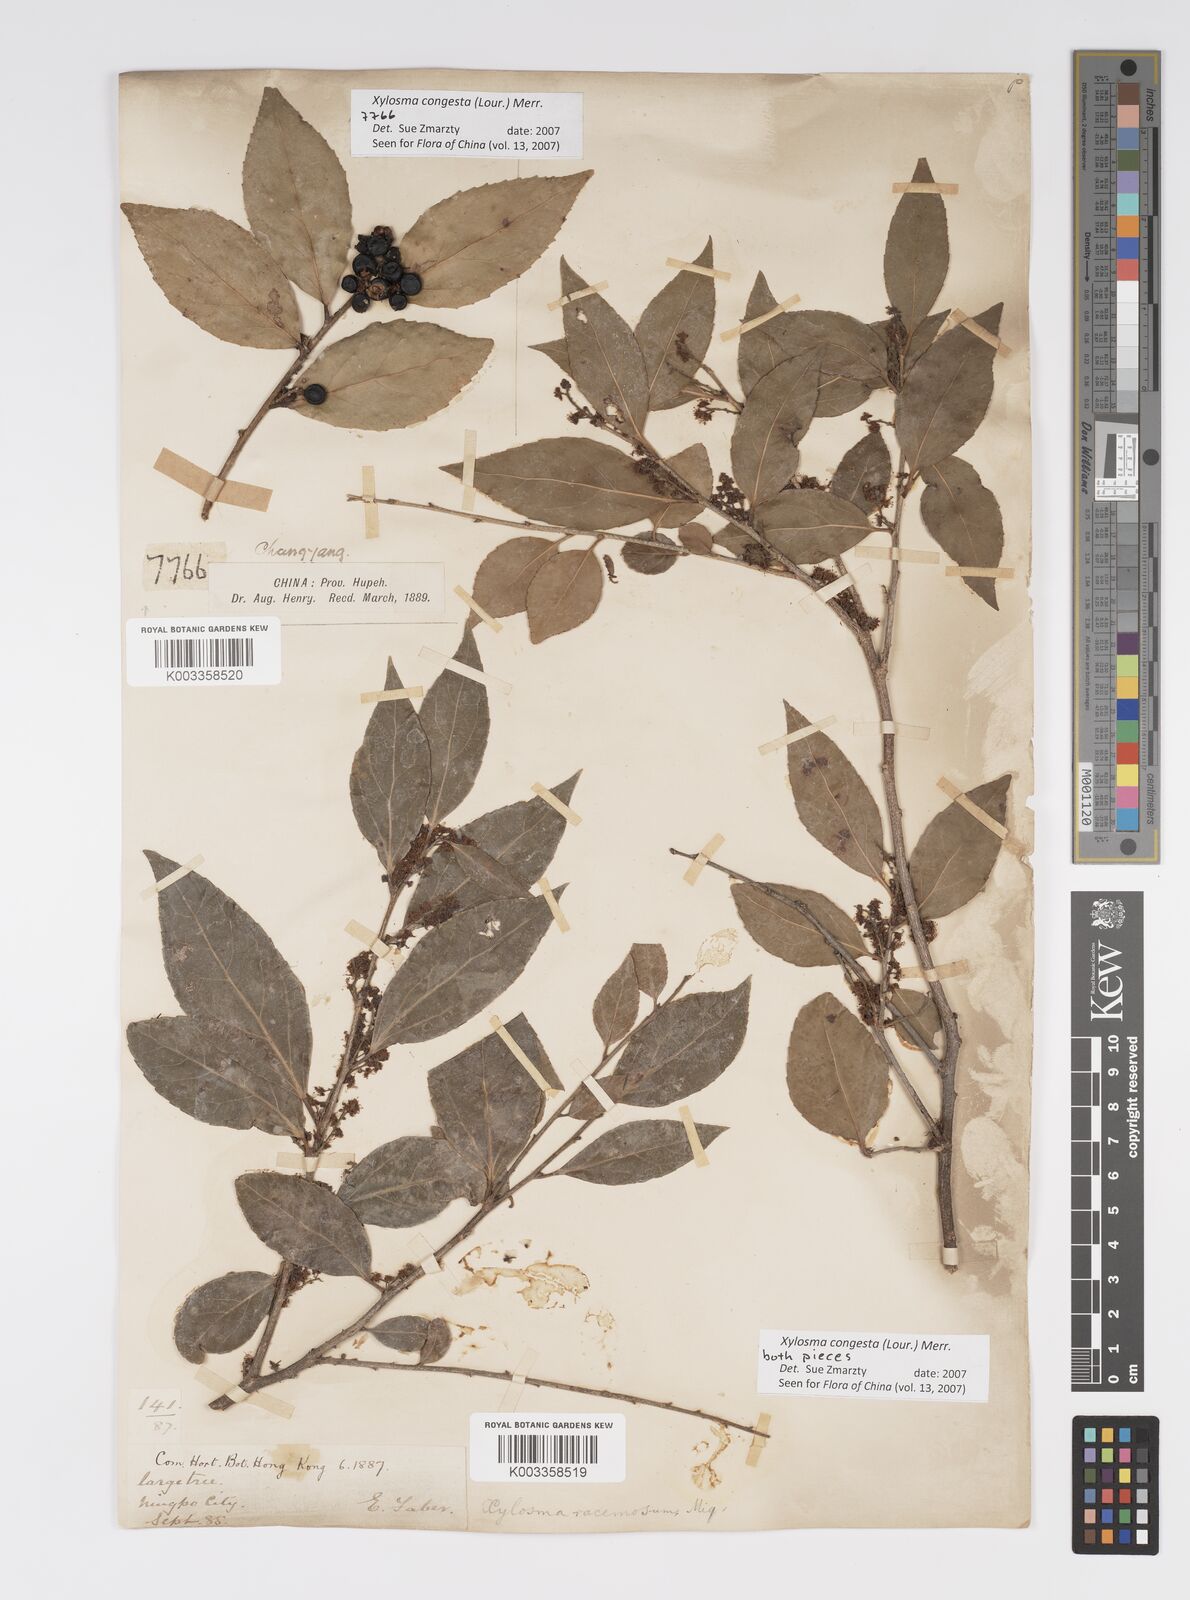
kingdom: Plantae
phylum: Tracheophyta
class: Magnoliopsida
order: Malpighiales
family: Salicaceae
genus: Xylosma
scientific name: Xylosma racemosum
